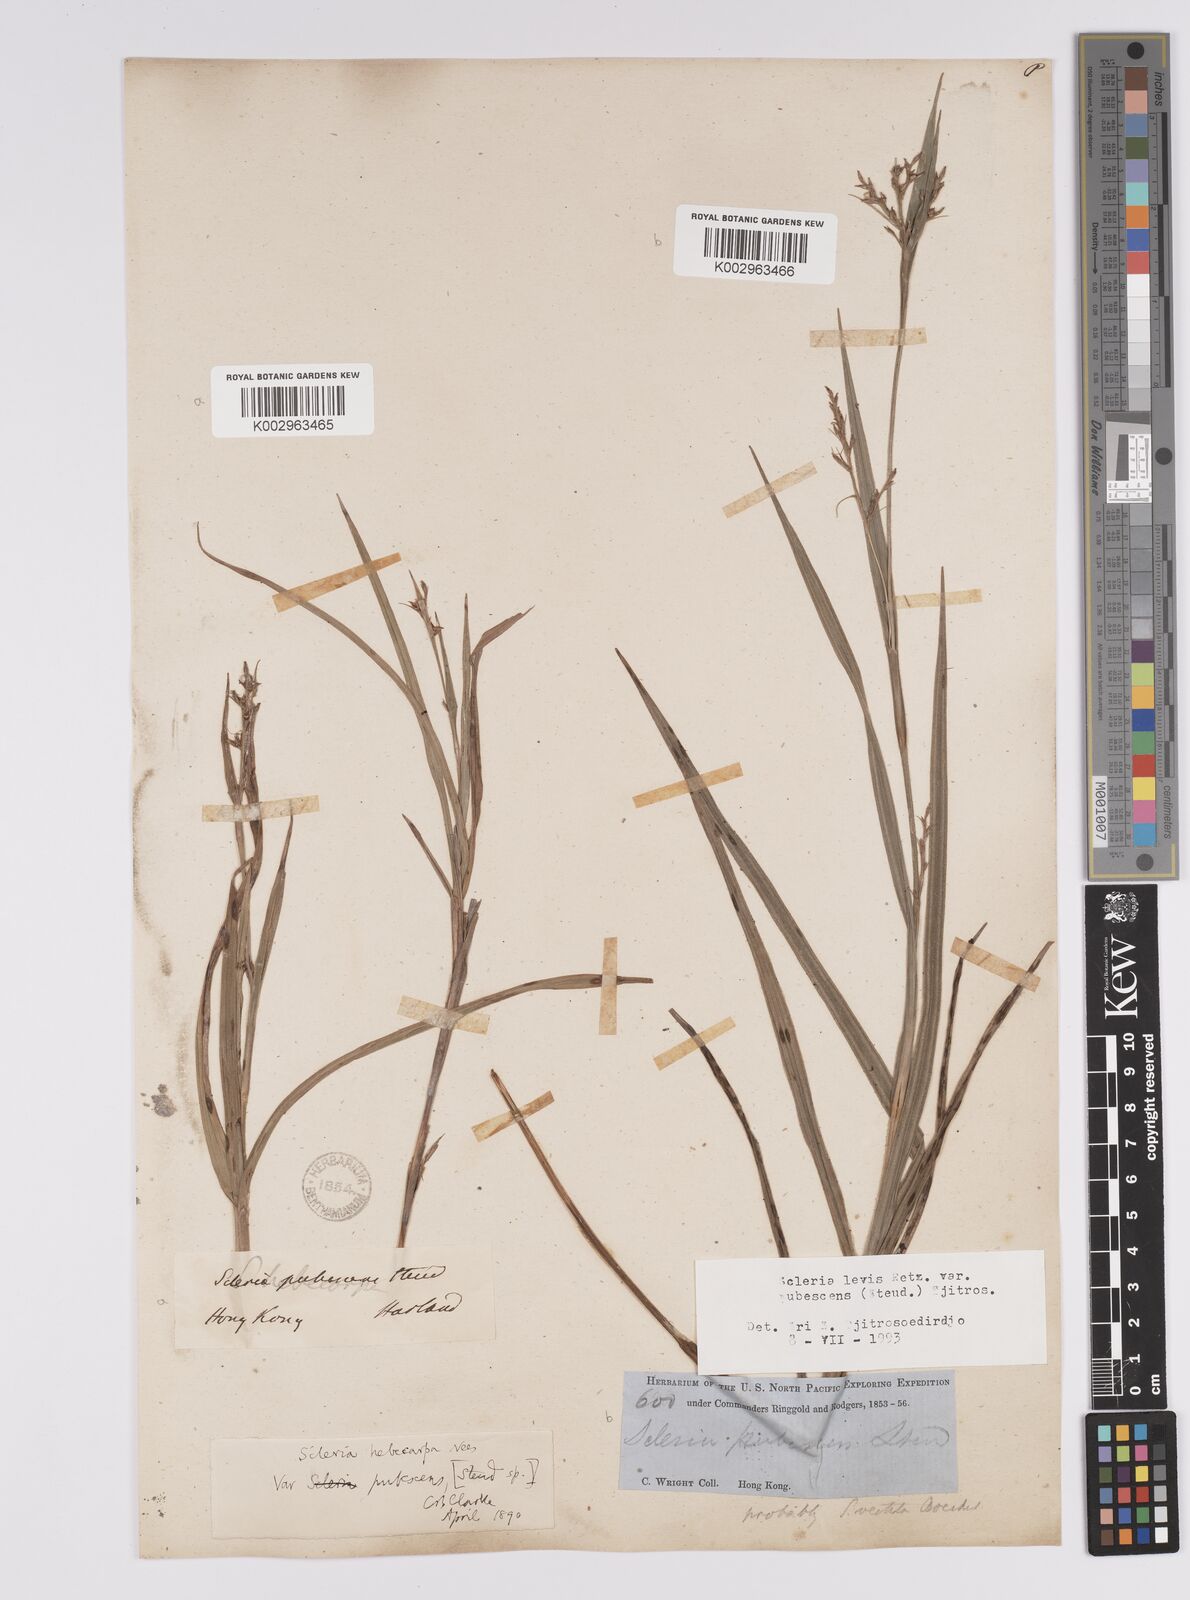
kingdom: Plantae
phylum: Tracheophyta
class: Liliopsida
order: Poales
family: Cyperaceae
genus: Scleria
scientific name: Scleria levis
